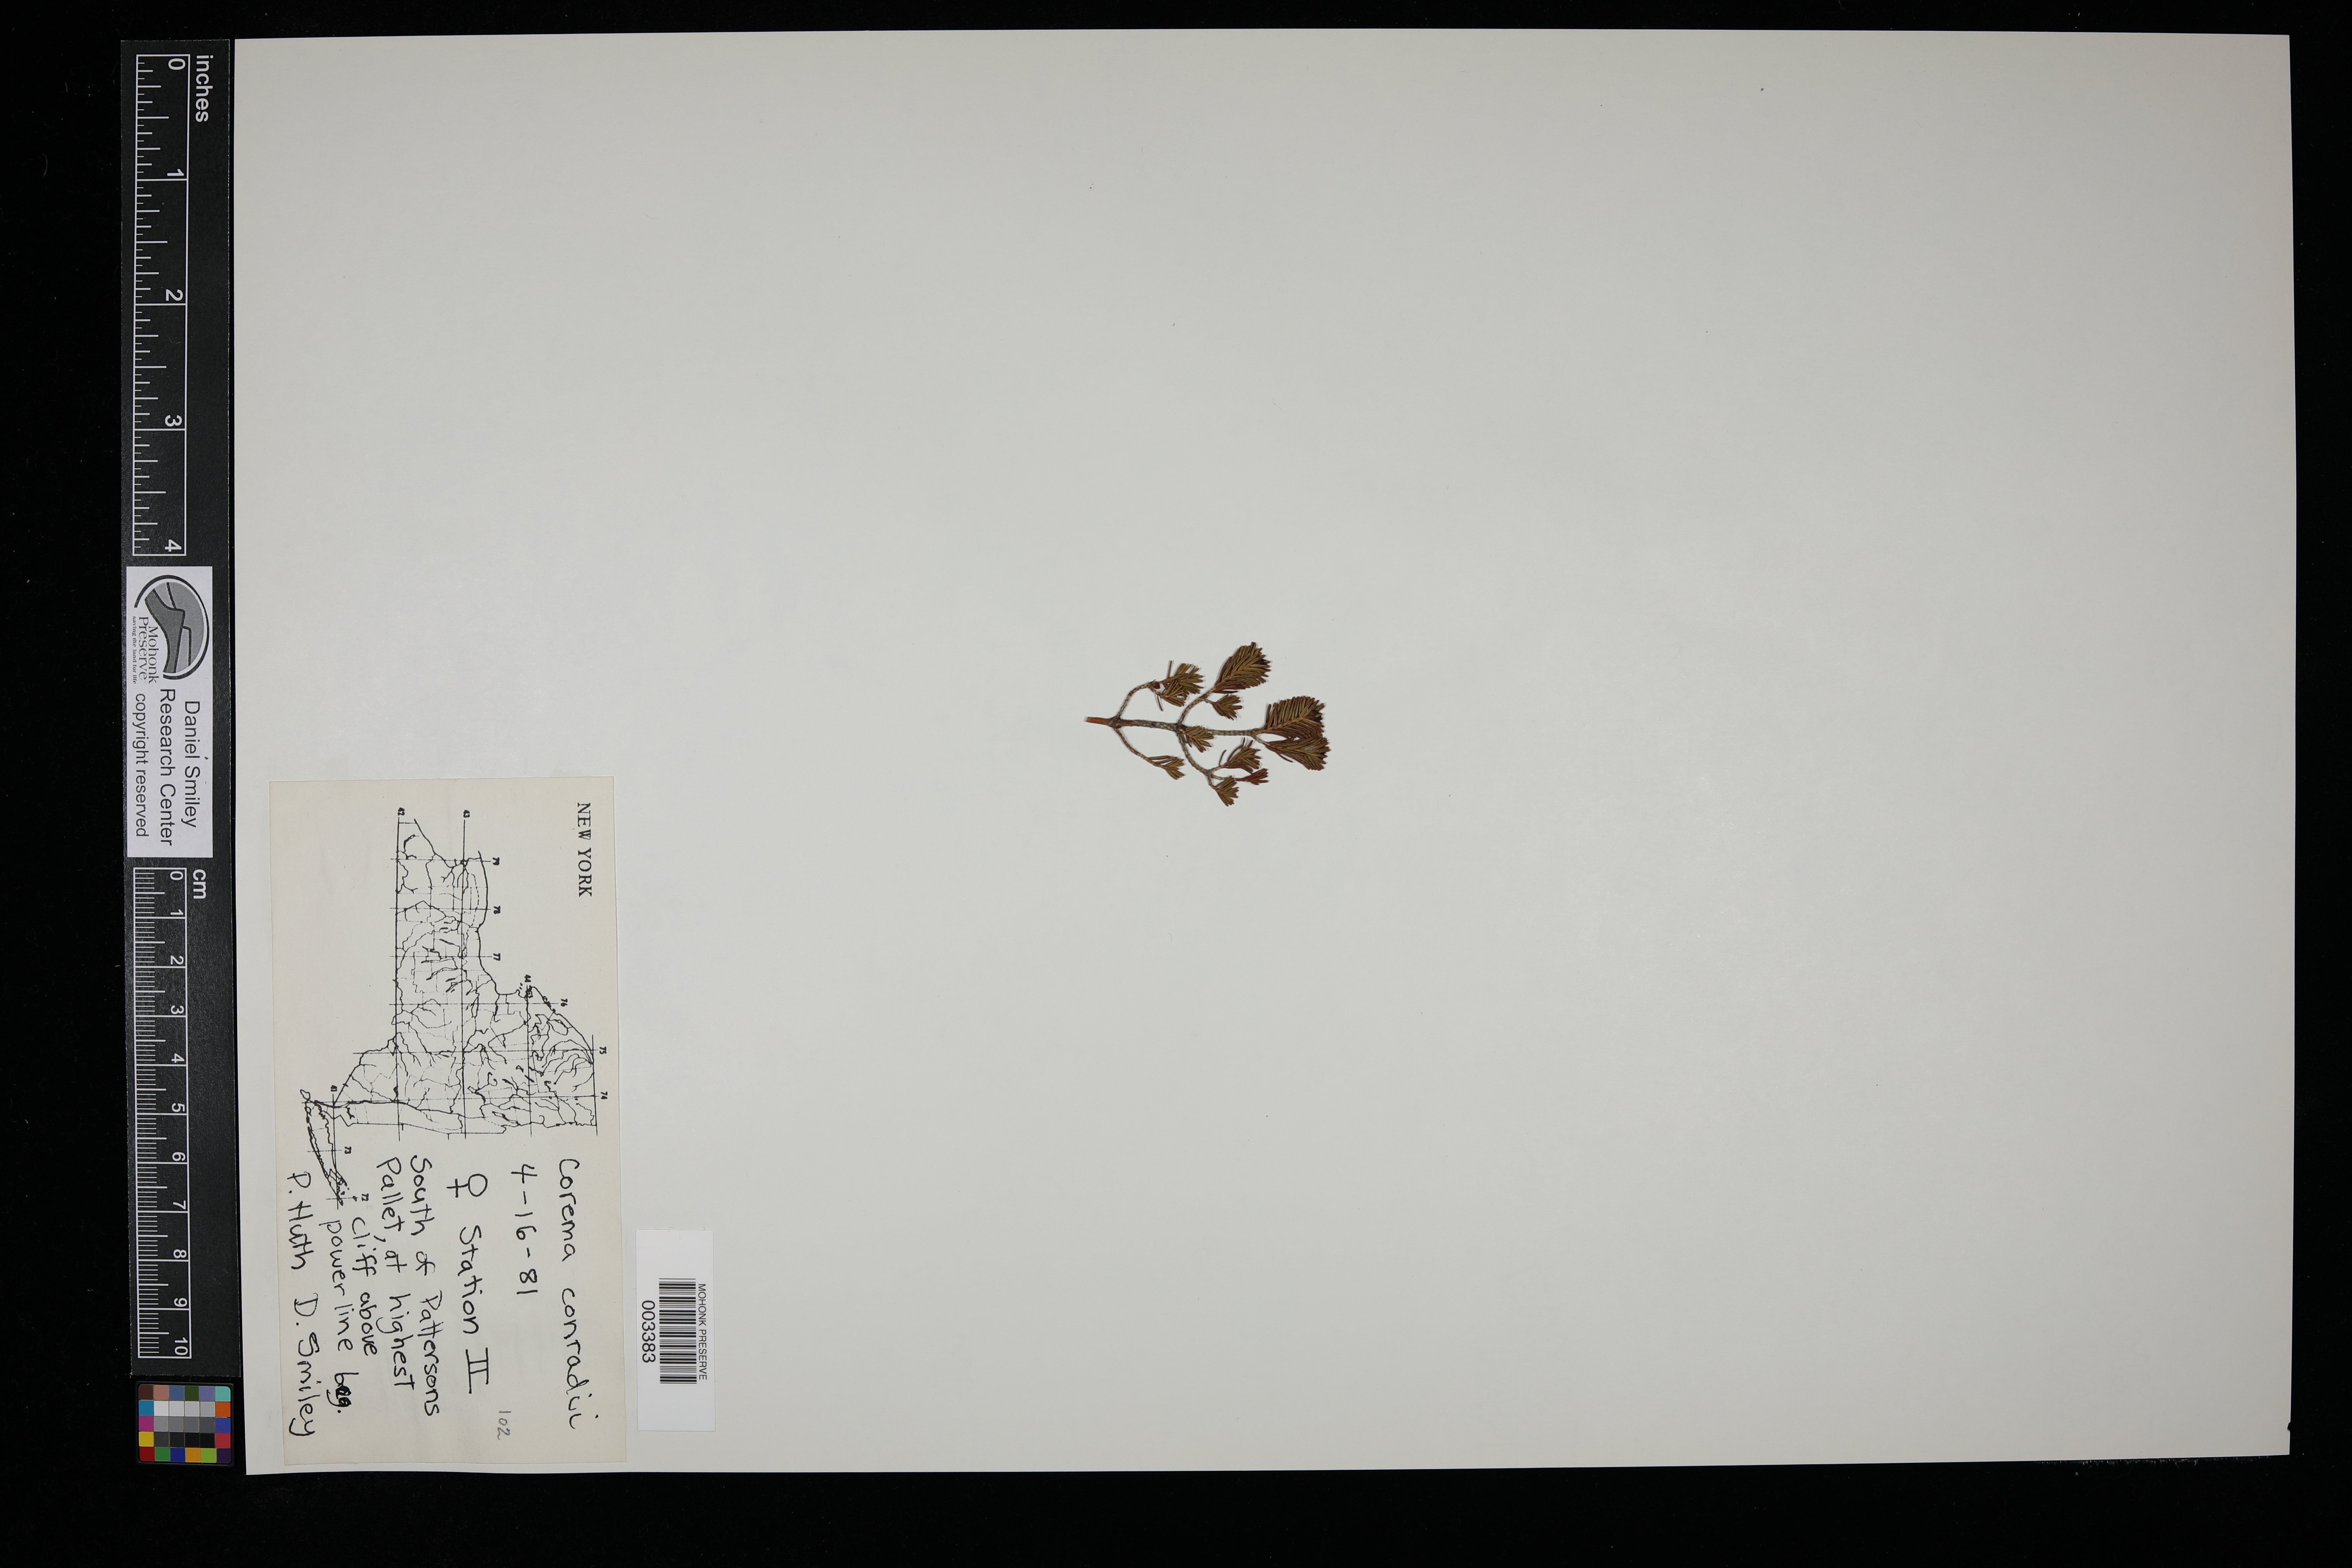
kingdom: Plantae
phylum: Tracheophyta
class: Magnoliopsida
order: Ericales
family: Ericaceae
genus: Corema
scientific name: Corema conradii
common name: Broom-crowberry
